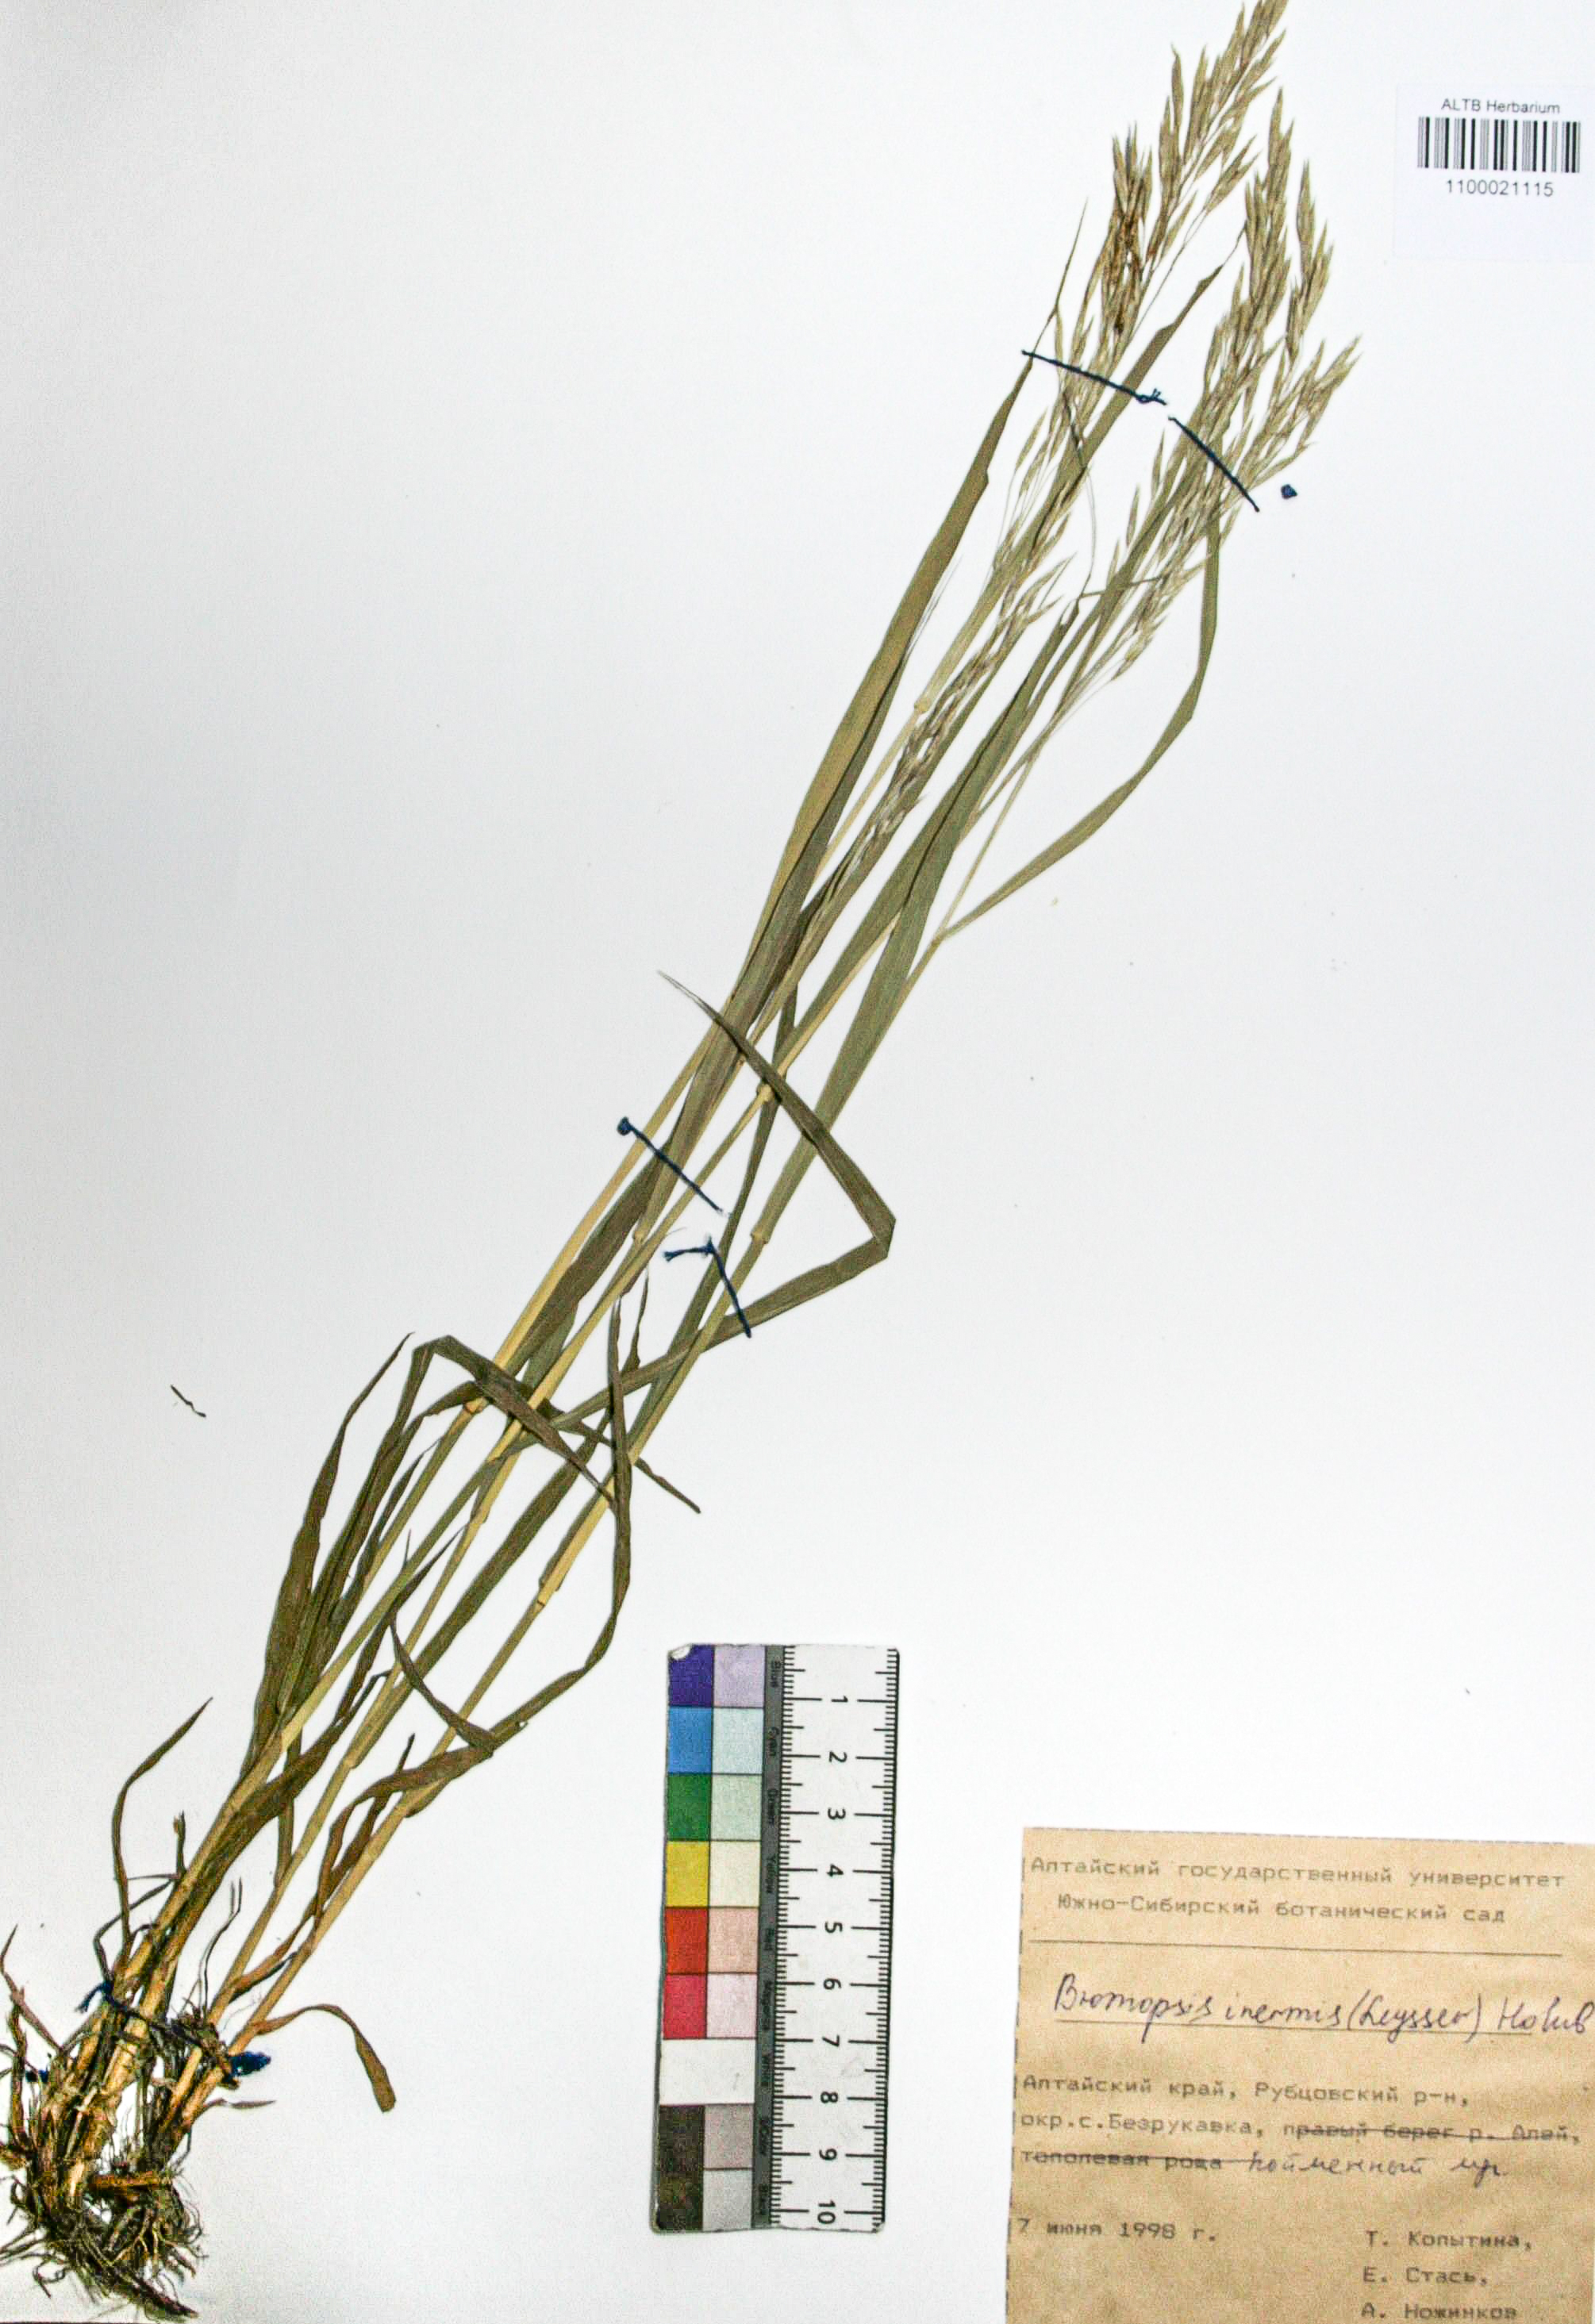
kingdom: Plantae
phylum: Tracheophyta
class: Liliopsida
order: Poales
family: Poaceae
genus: Bromus
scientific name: Bromus inermis
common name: Smooth brome
